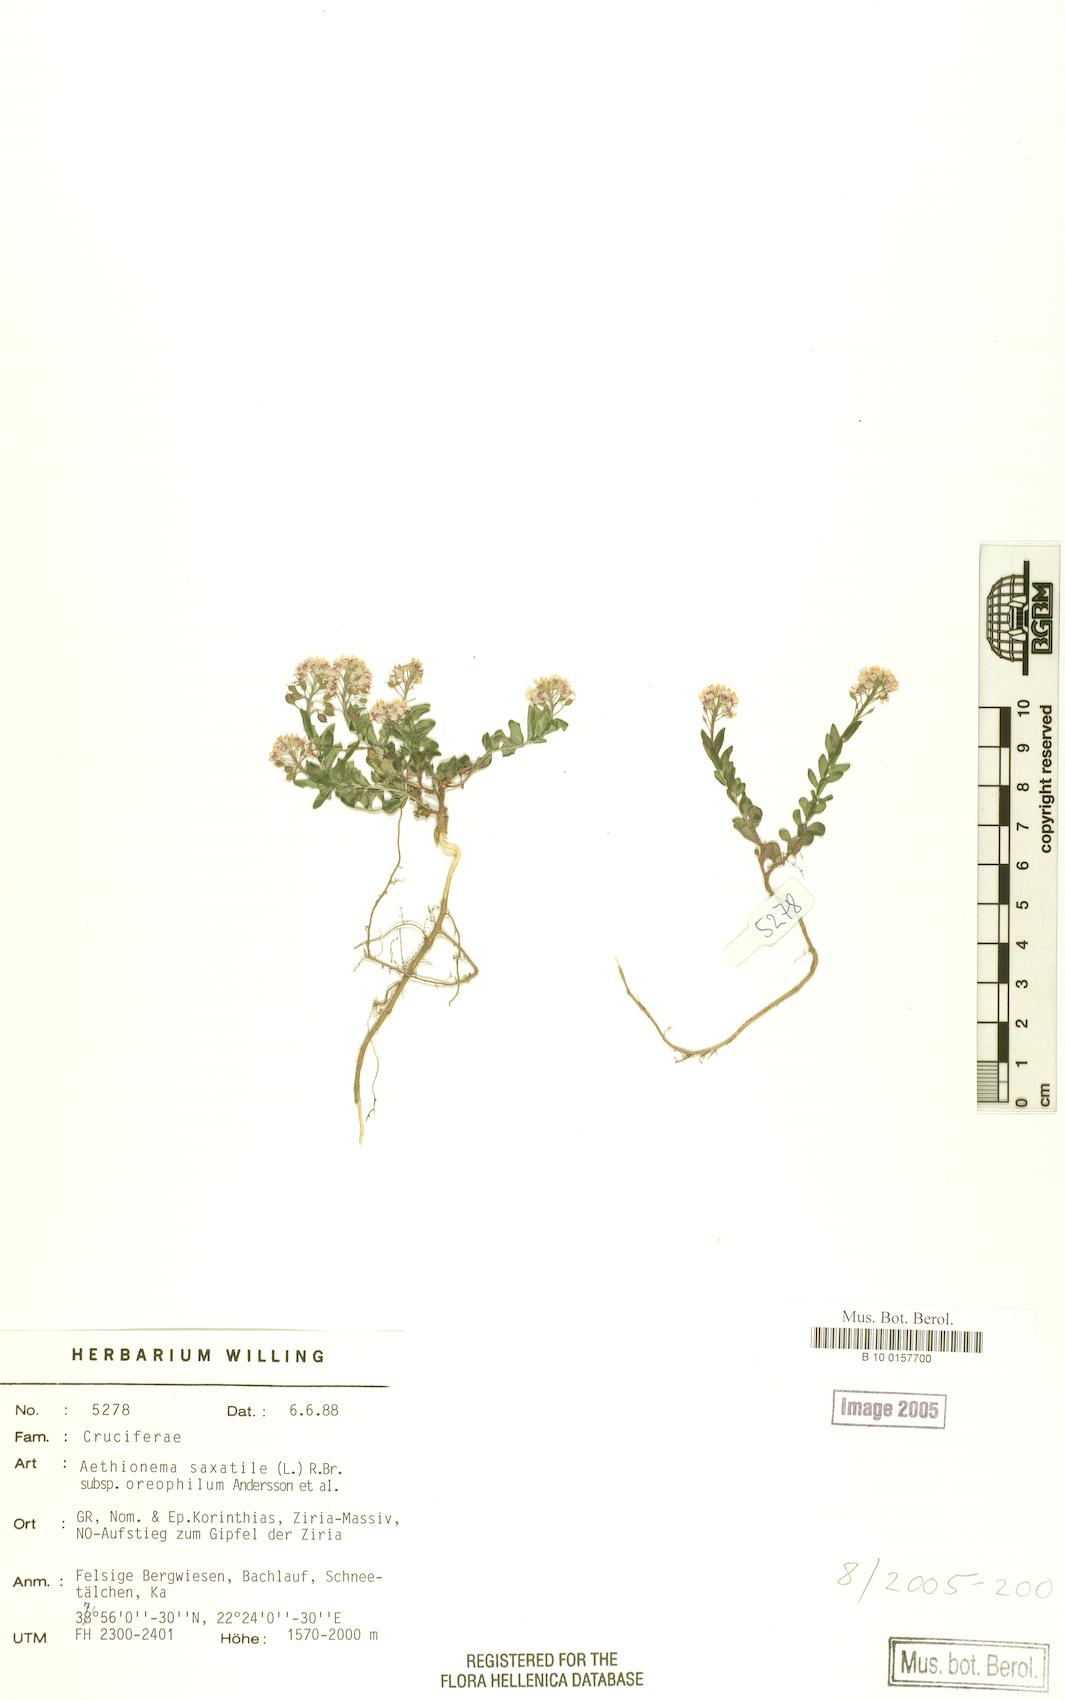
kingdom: Plantae
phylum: Tracheophyta
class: Magnoliopsida
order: Brassicales
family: Brassicaceae
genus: Aethionema
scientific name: Aethionema saxatile
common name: Burnt candytuft
